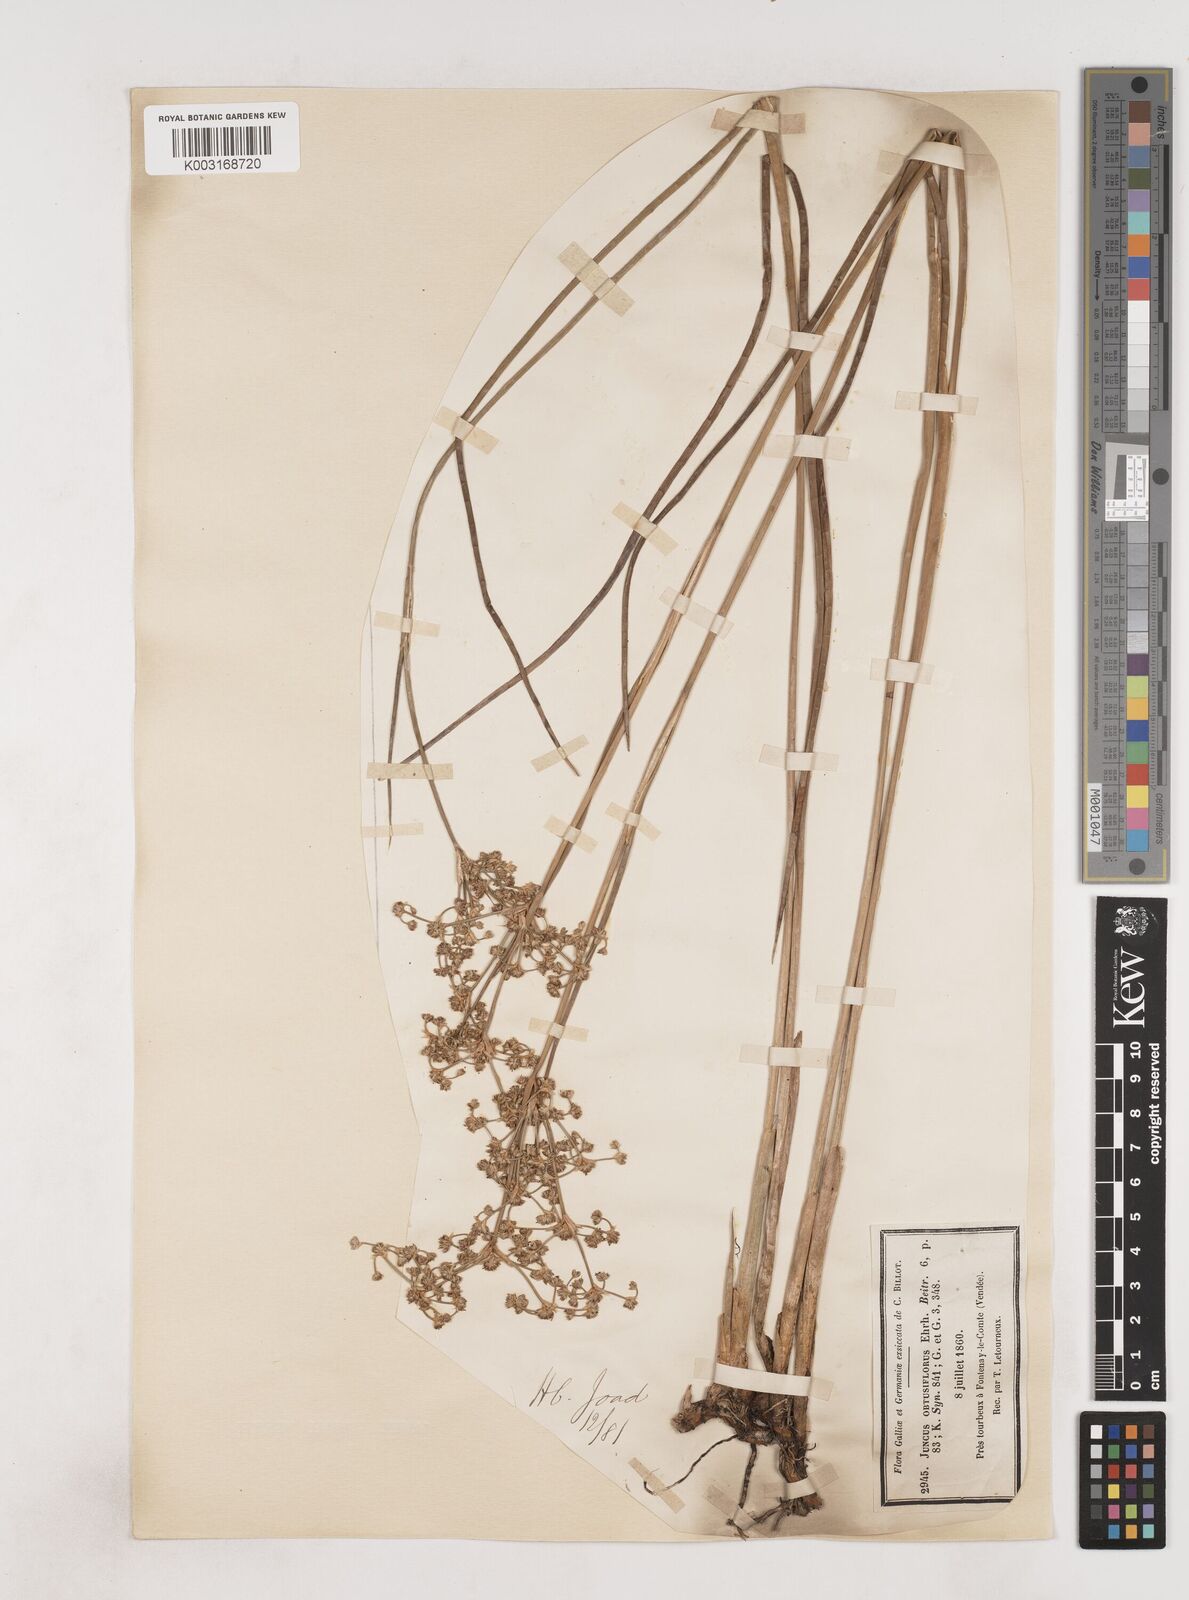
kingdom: Plantae
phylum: Tracheophyta
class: Liliopsida
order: Poales
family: Juncaceae
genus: Juncus
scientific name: Juncus subnodulosus
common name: Blunt-flowered rush
